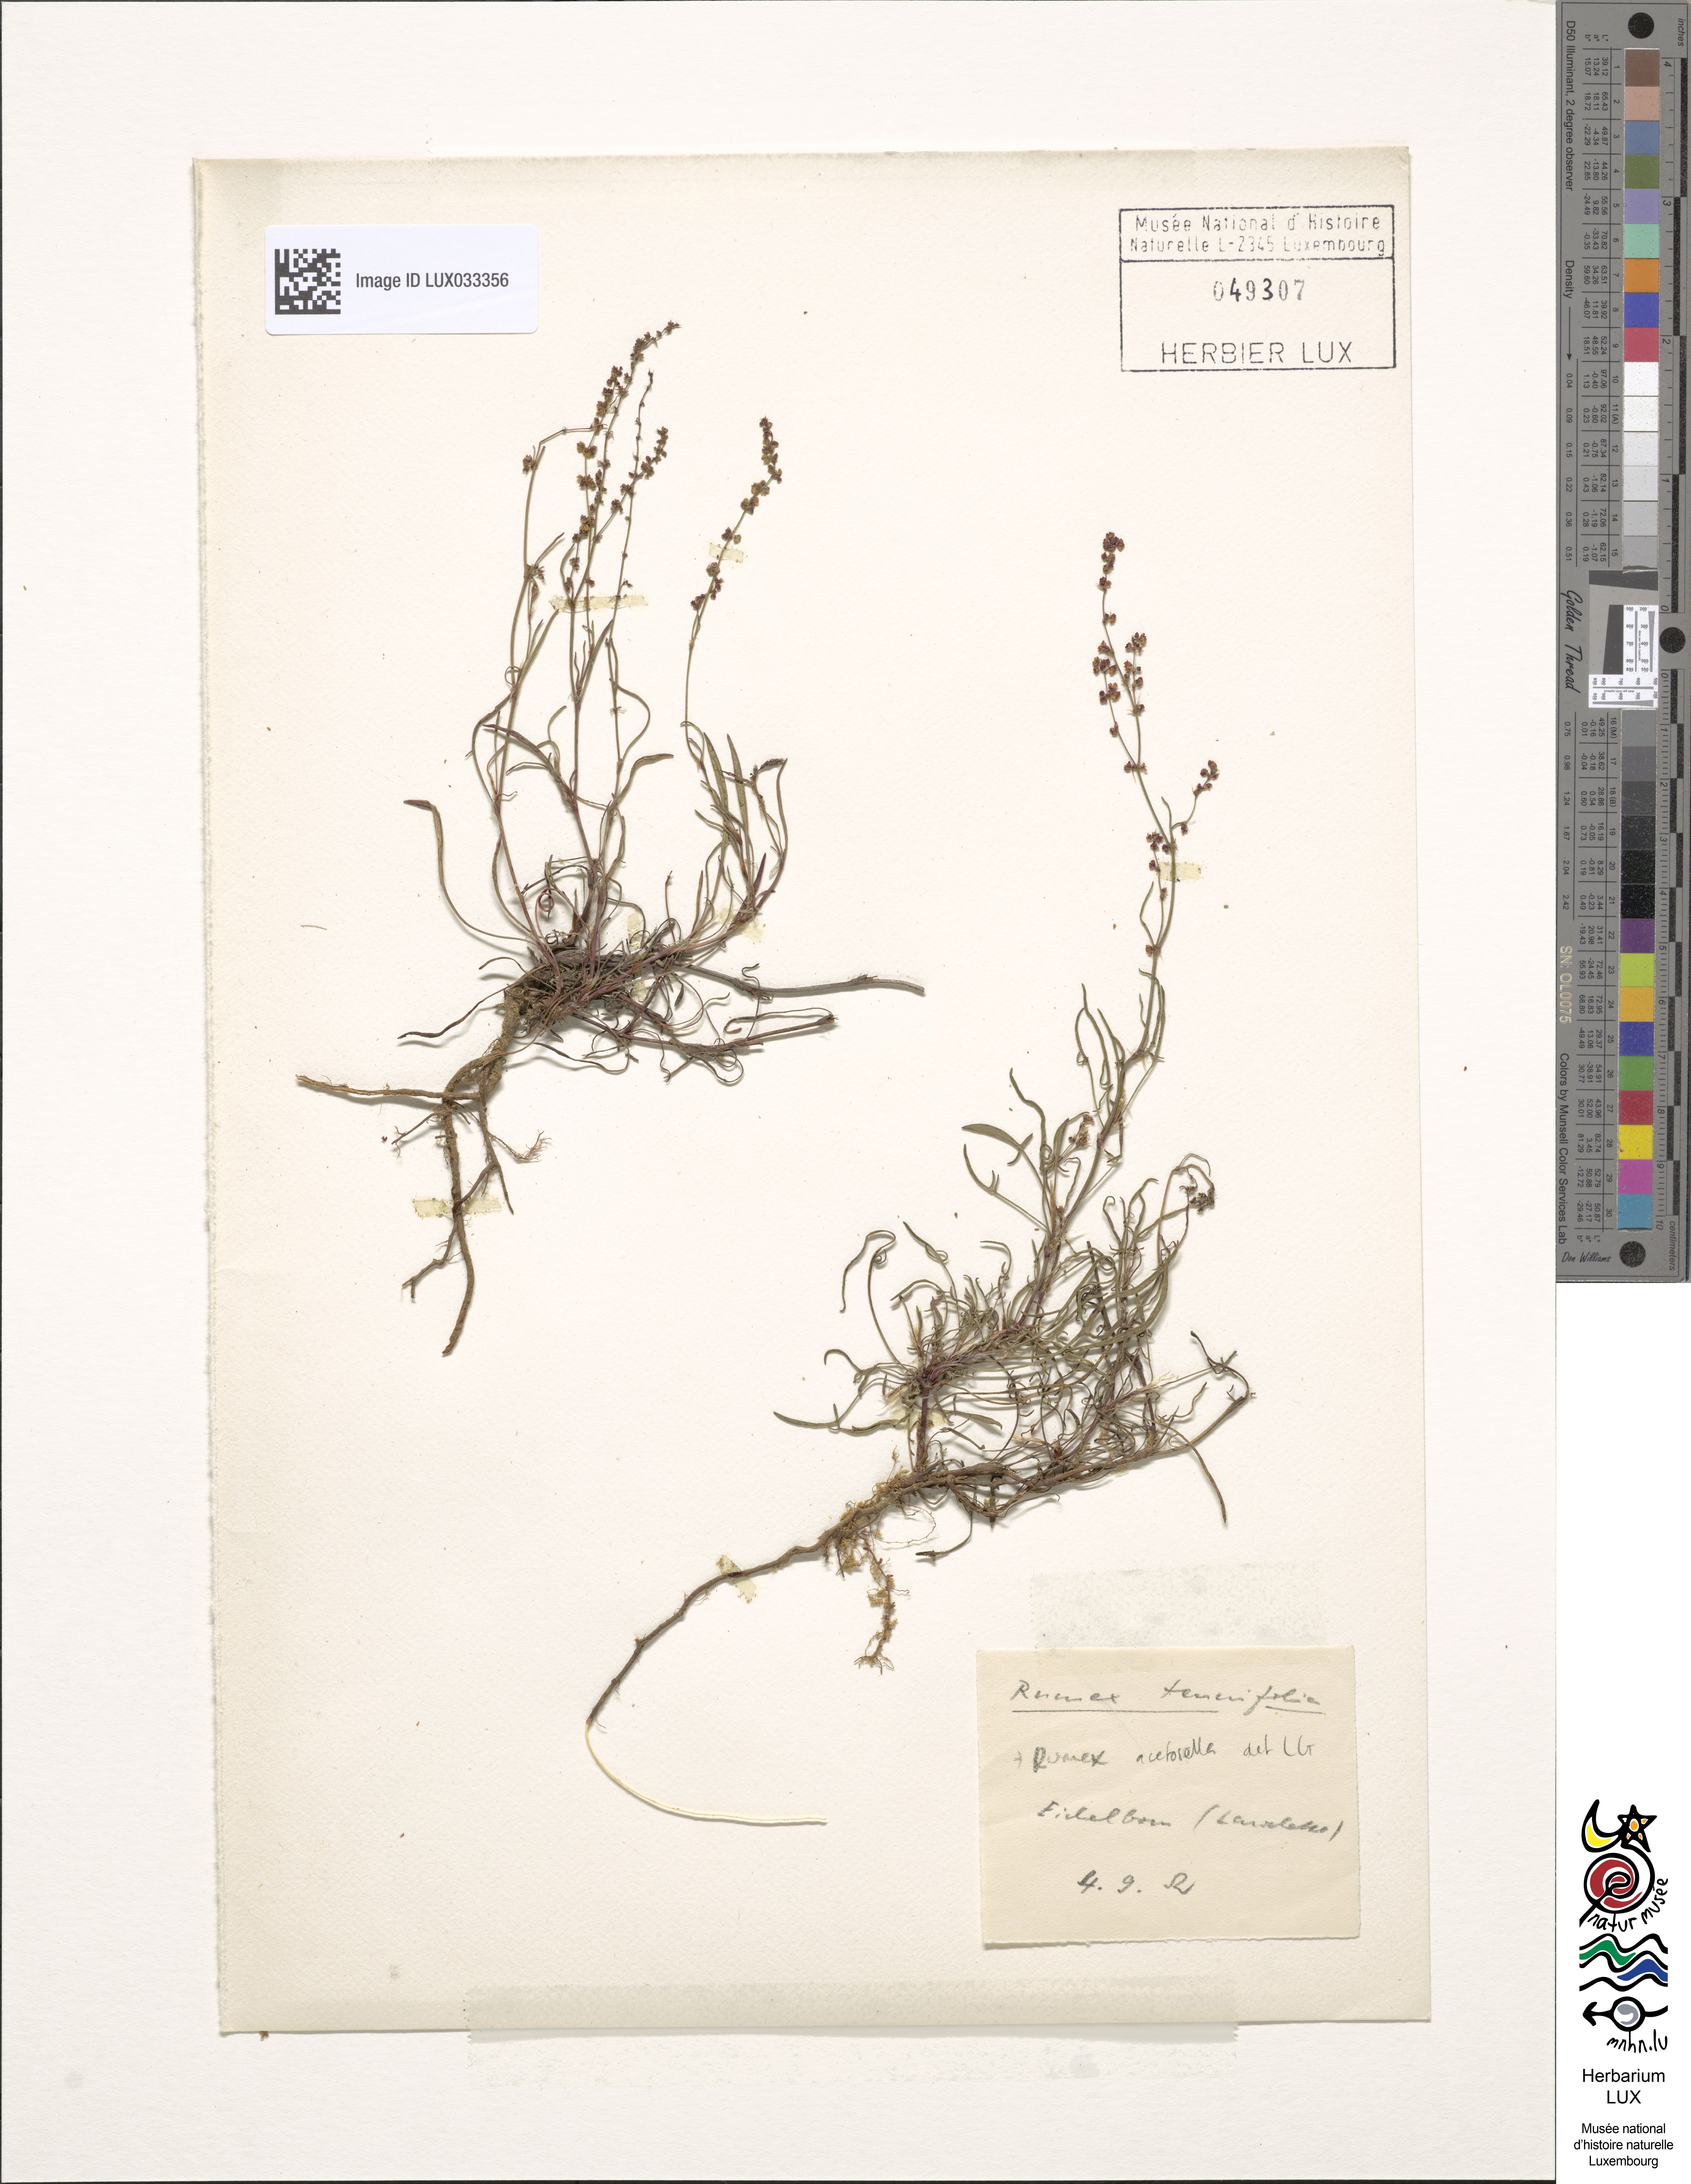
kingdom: Plantae
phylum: Tracheophyta
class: Magnoliopsida
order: Caryophyllales
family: Polygonaceae
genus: Rumex
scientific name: Rumex acetosella
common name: Common sheep sorrel
